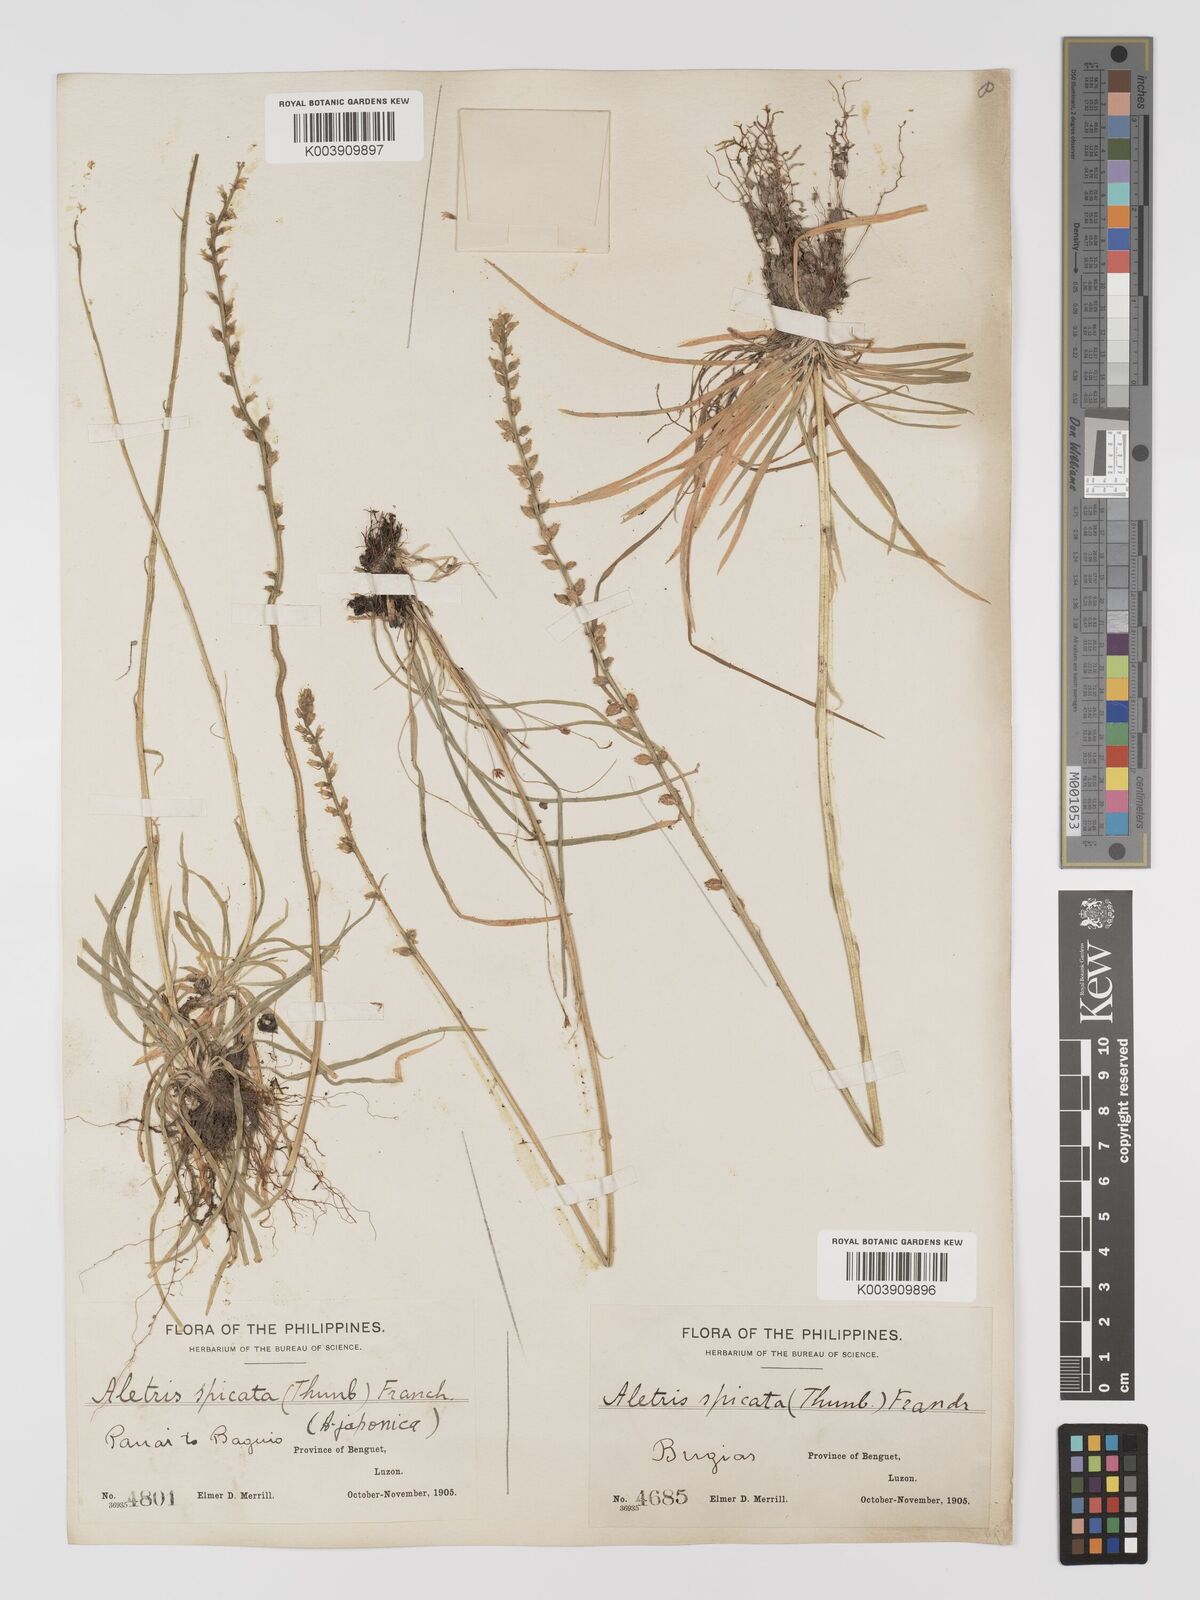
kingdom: Plantae
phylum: Tracheophyta
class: Liliopsida
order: Dioscoreales
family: Nartheciaceae
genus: Aletris
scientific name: Aletris spicata
